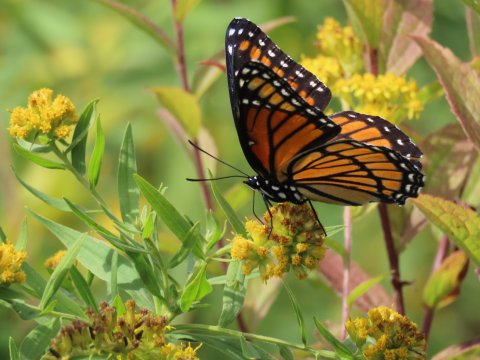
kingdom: Animalia
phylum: Arthropoda
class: Insecta
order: Lepidoptera
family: Nymphalidae
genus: Limenitis
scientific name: Limenitis archippus
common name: Viceroy
